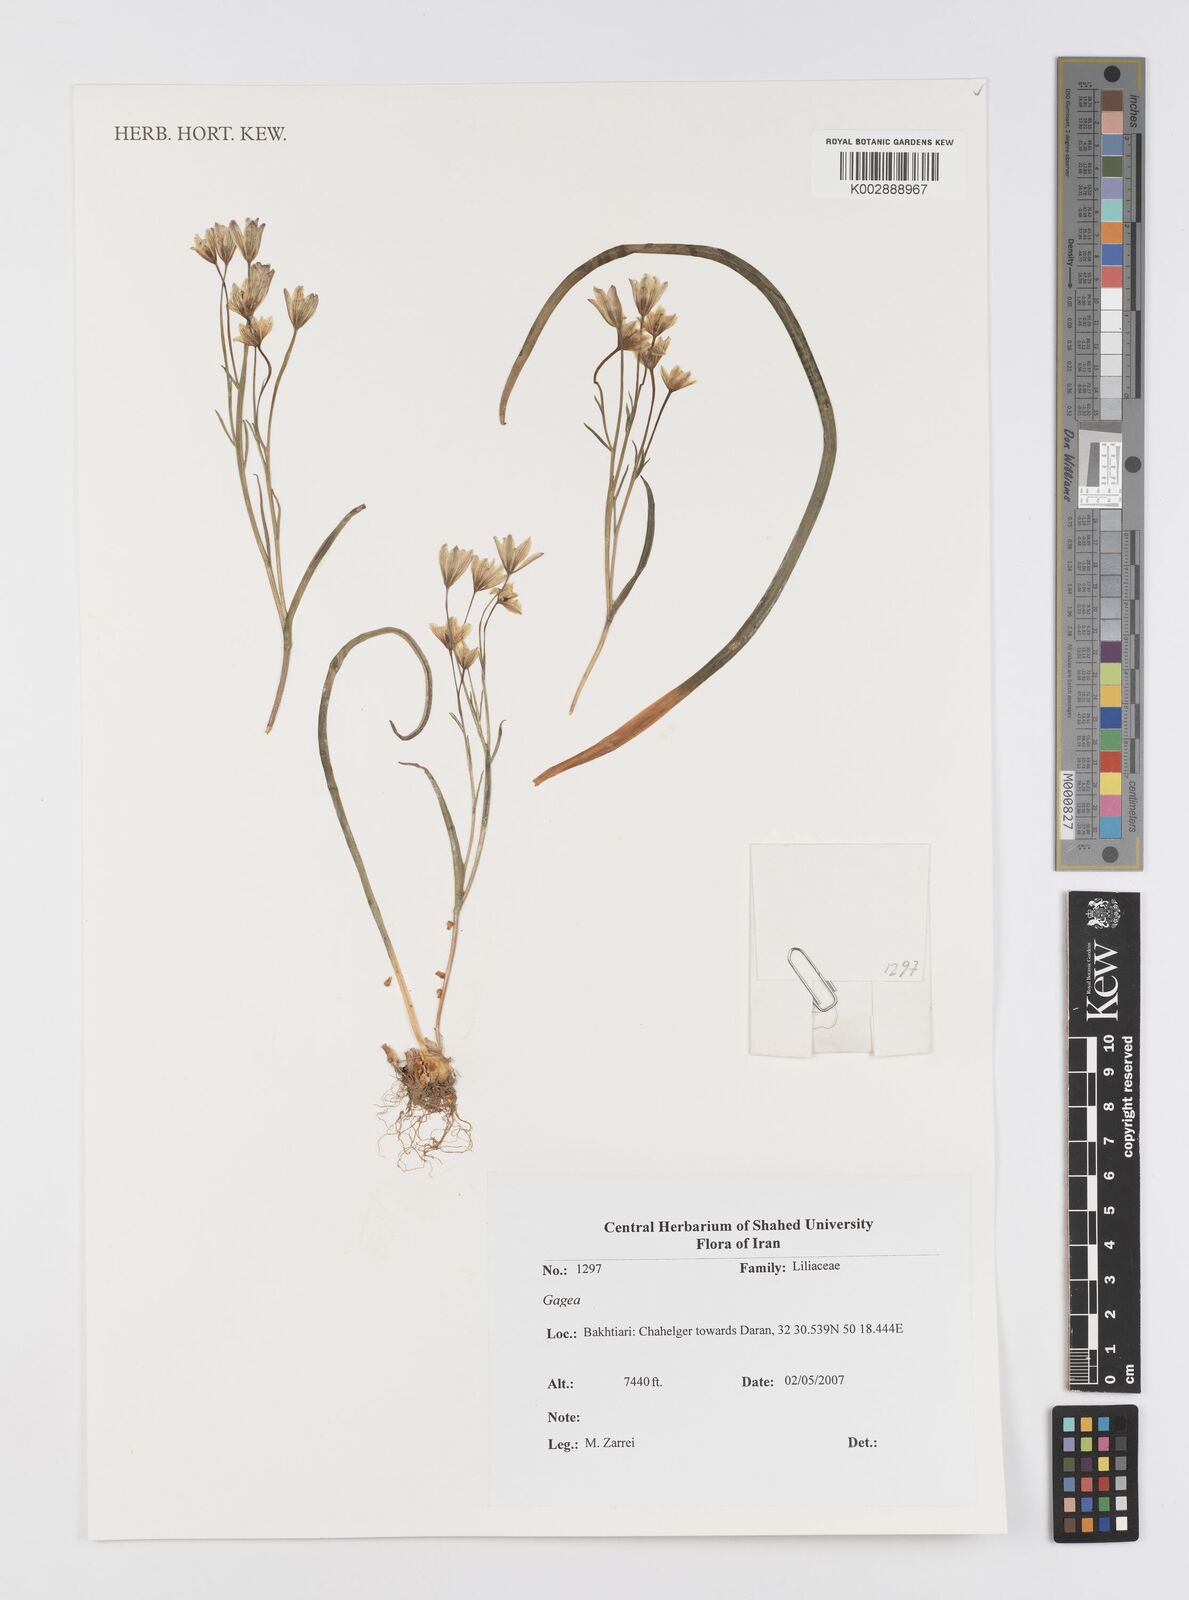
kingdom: Plantae
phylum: Tracheophyta
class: Liliopsida
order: Liliales
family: Liliaceae
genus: Gagea
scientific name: Gagea
